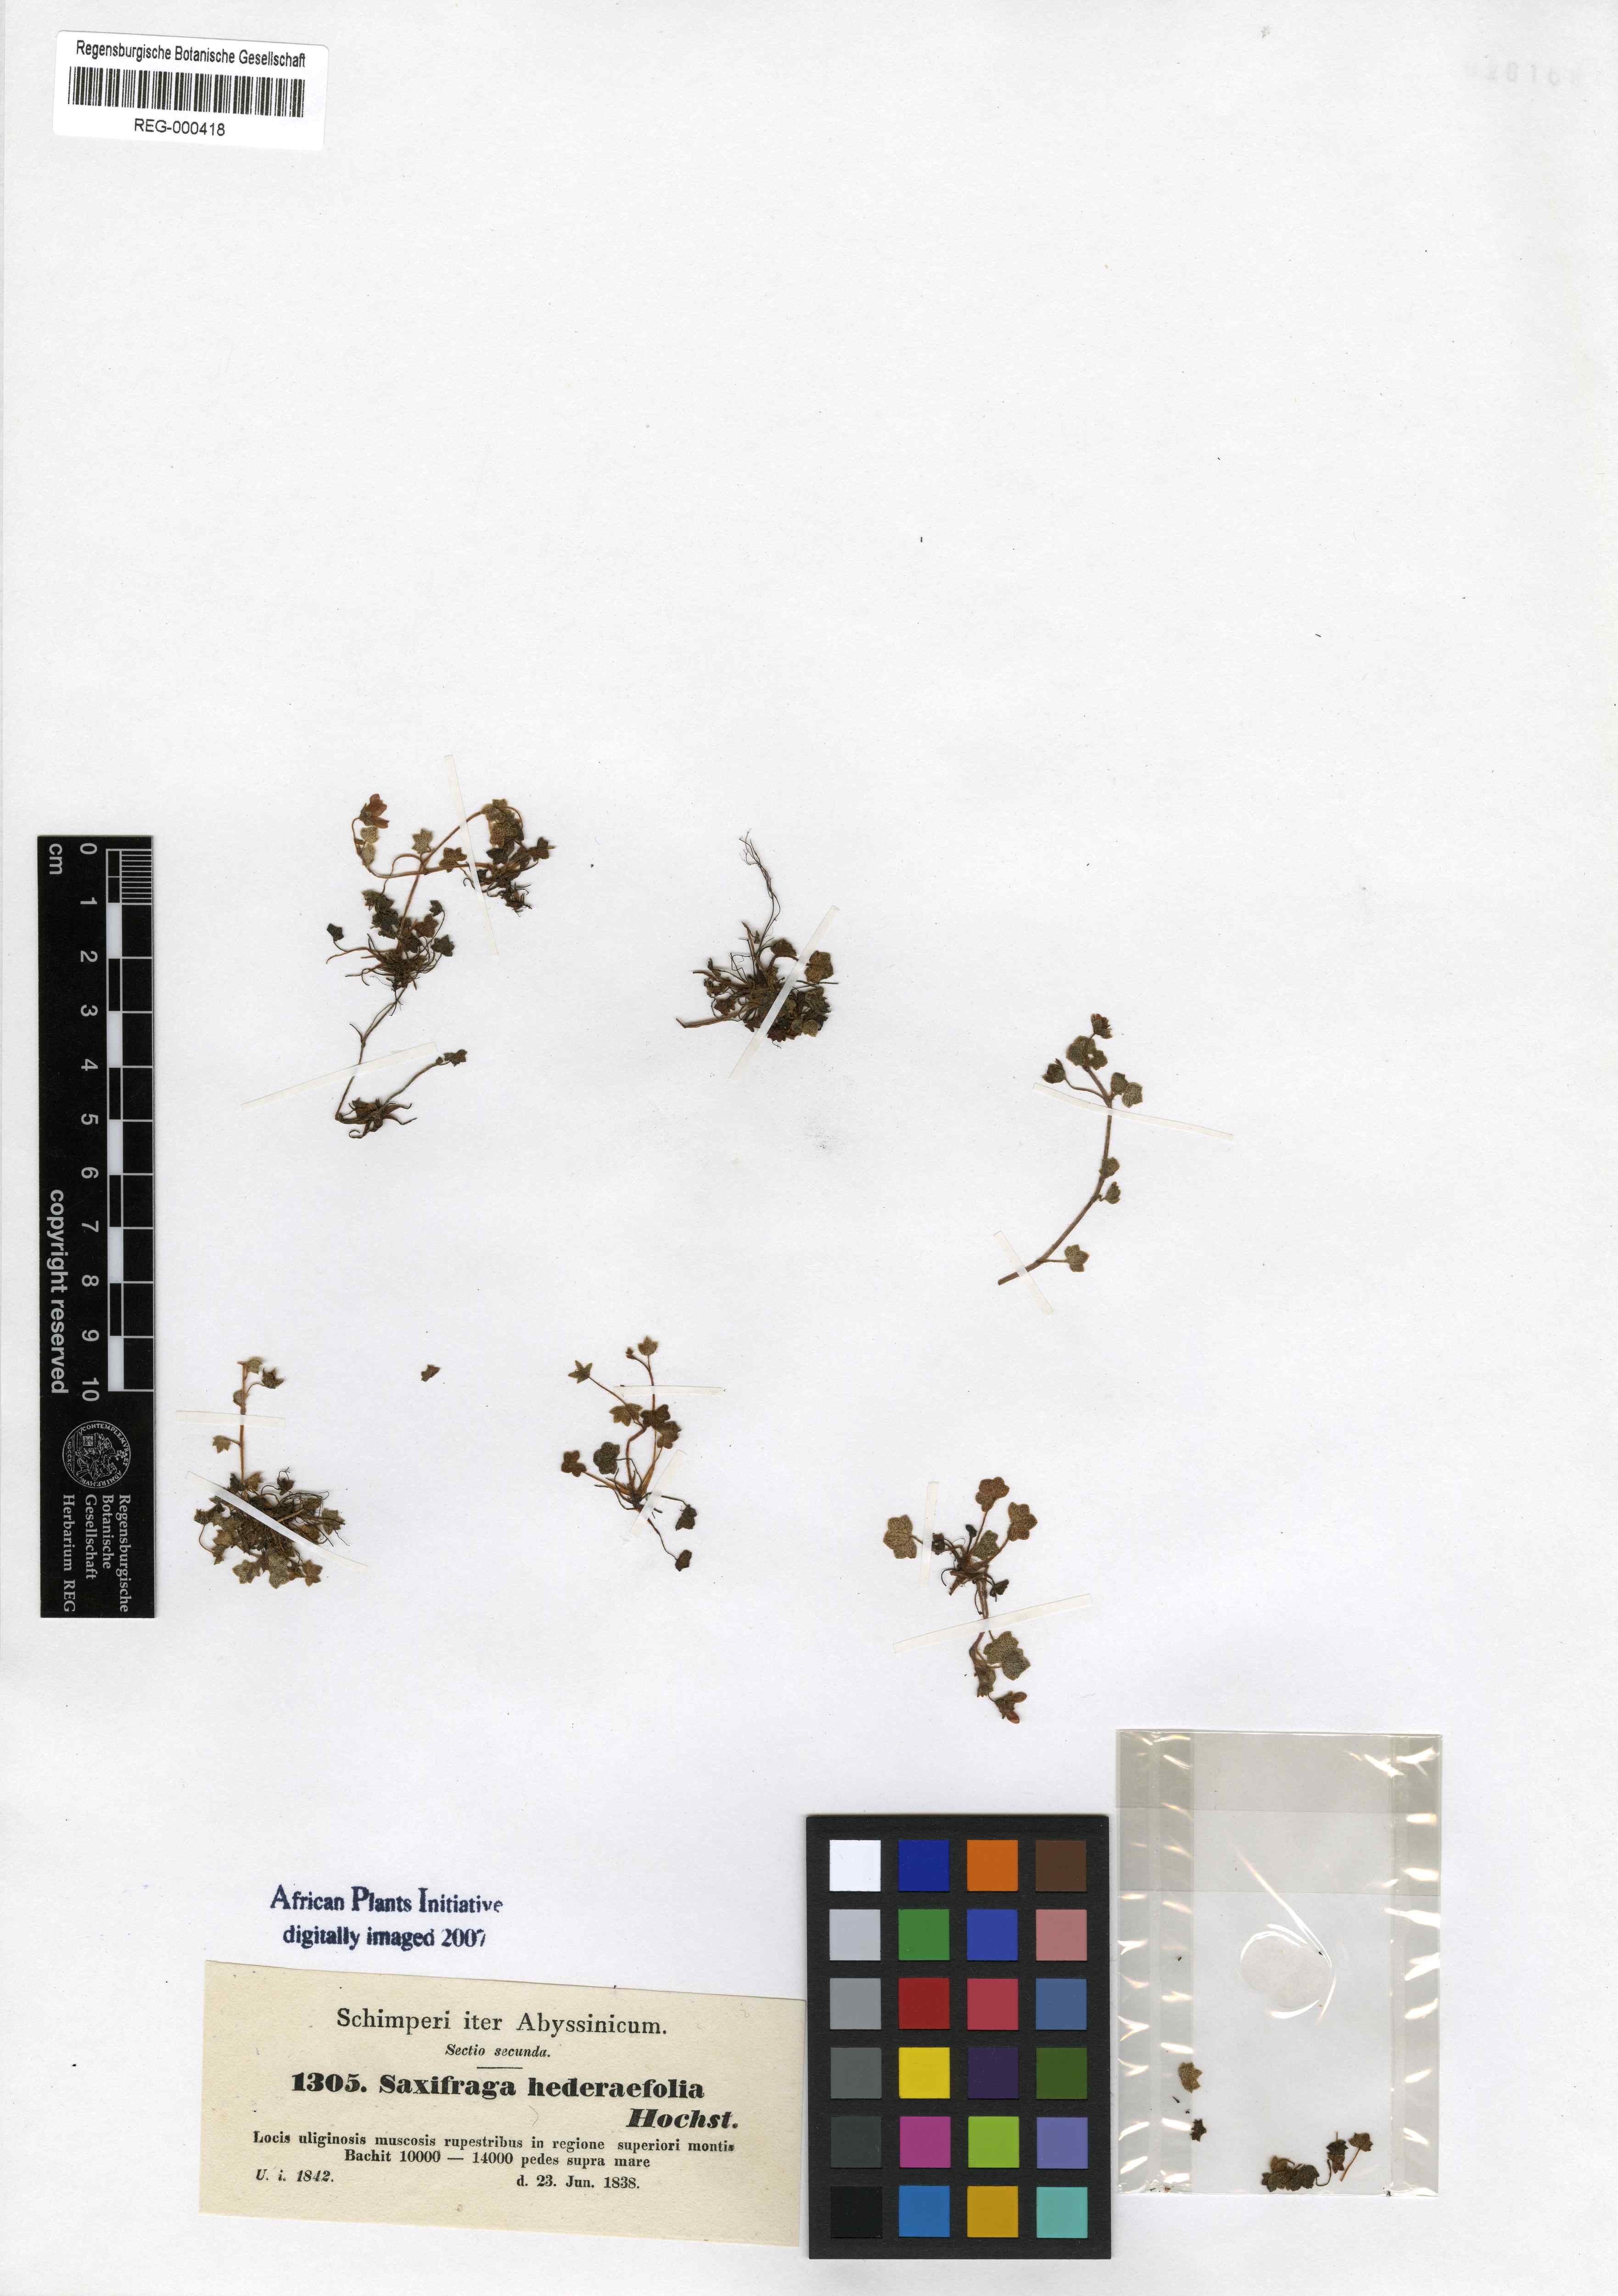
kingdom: Plantae
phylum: Tracheophyta
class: Magnoliopsida
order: Saxifragales
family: Saxifragaceae
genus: Saxifraga
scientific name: Saxifraga hederifolia
